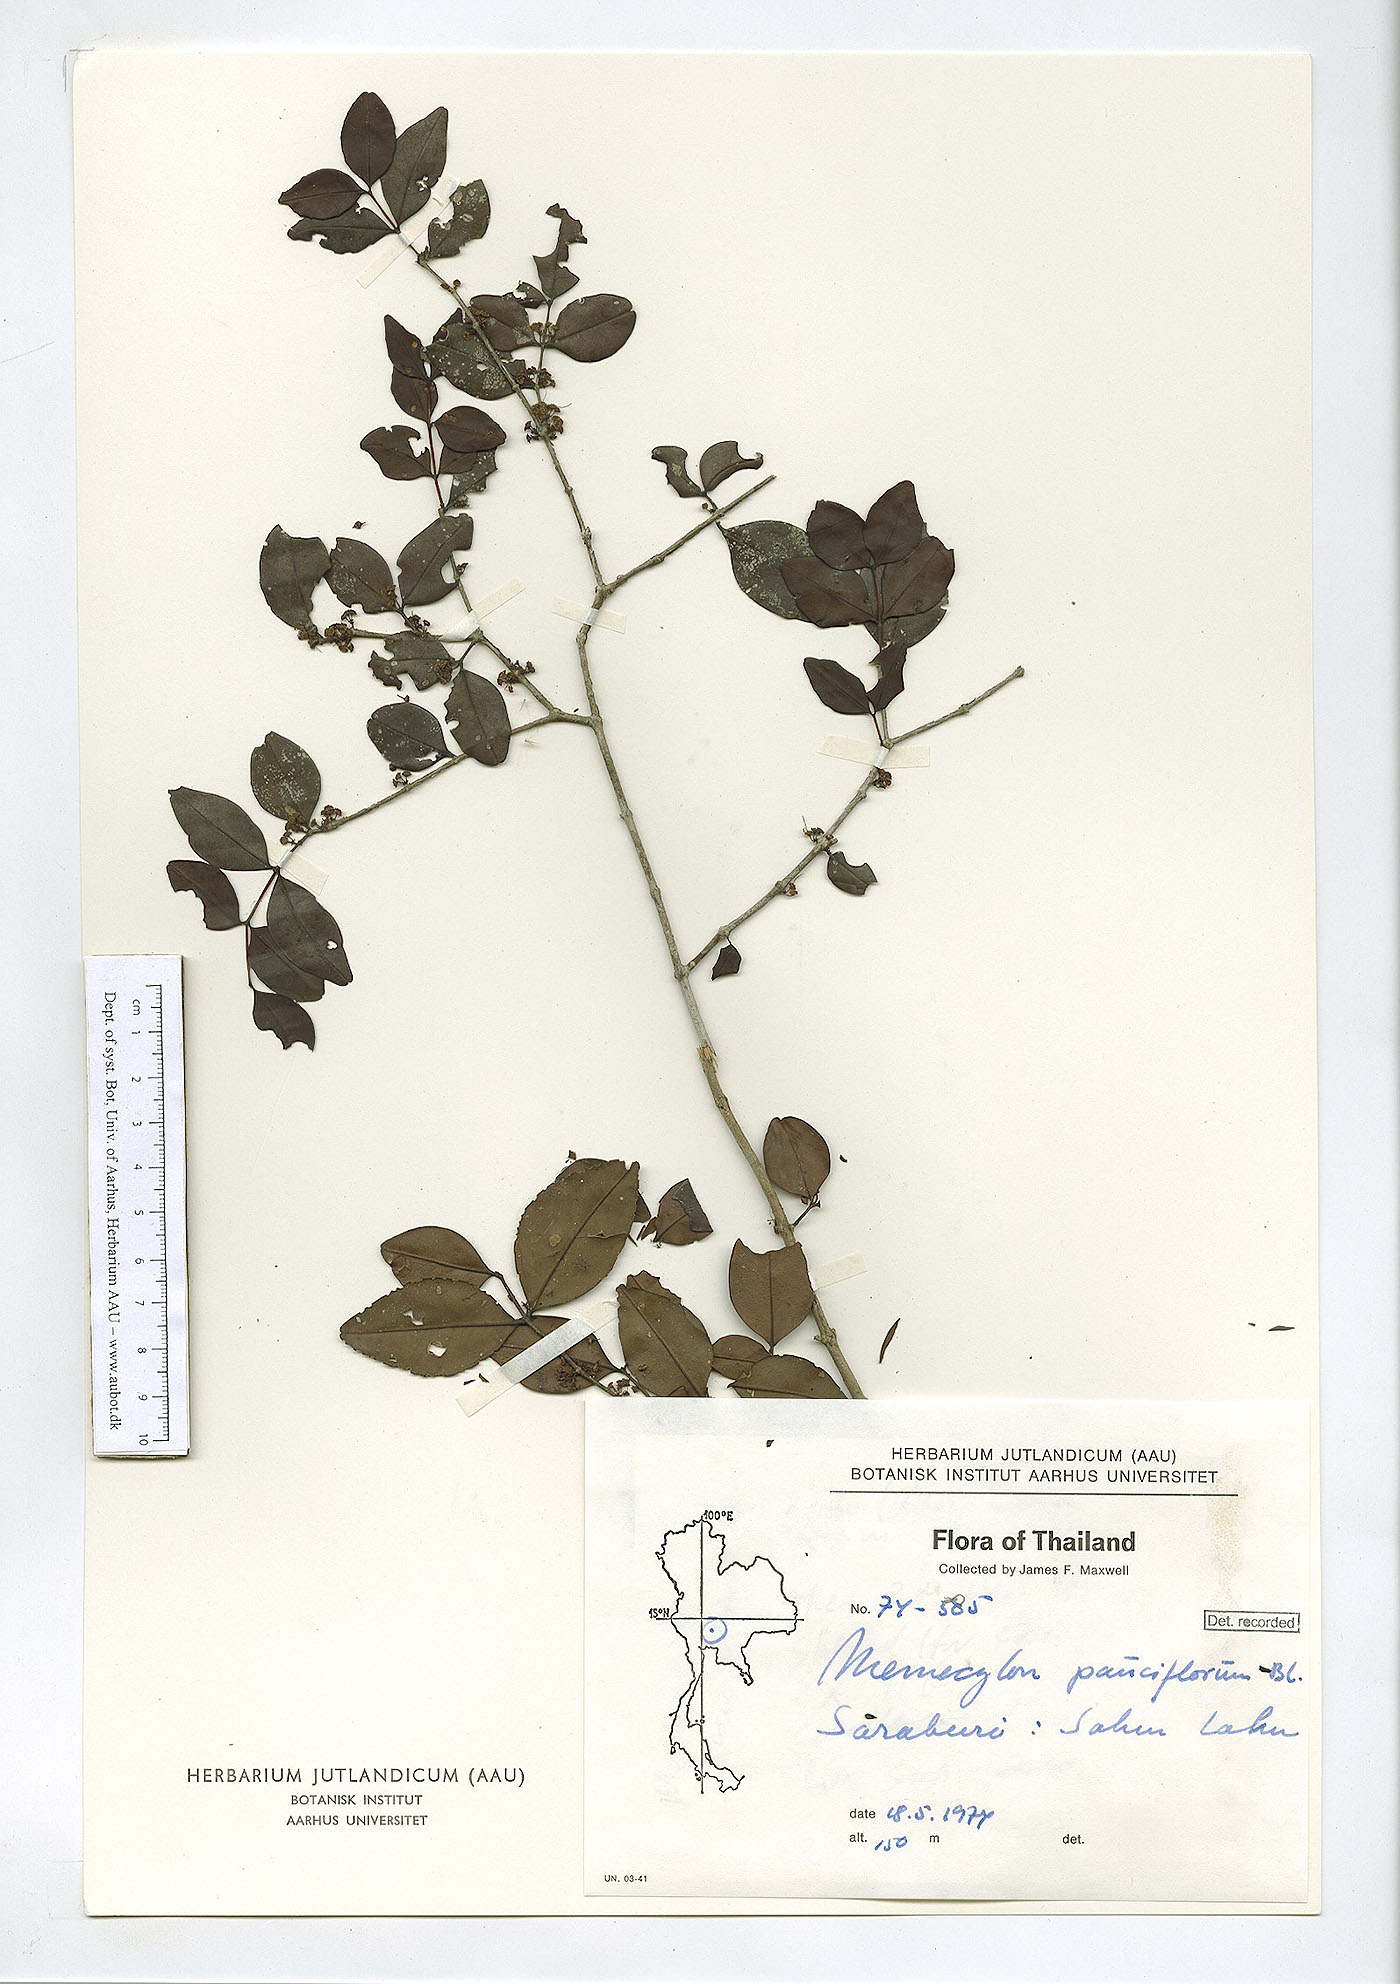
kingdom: Plantae
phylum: Tracheophyta
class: Magnoliopsida
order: Myrtales
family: Melastomataceae
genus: Memecylon
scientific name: Memecylon pauciflorum
